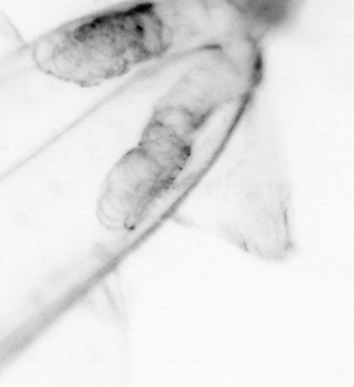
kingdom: Animalia
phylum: Chaetognatha
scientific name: Chaetognatha
